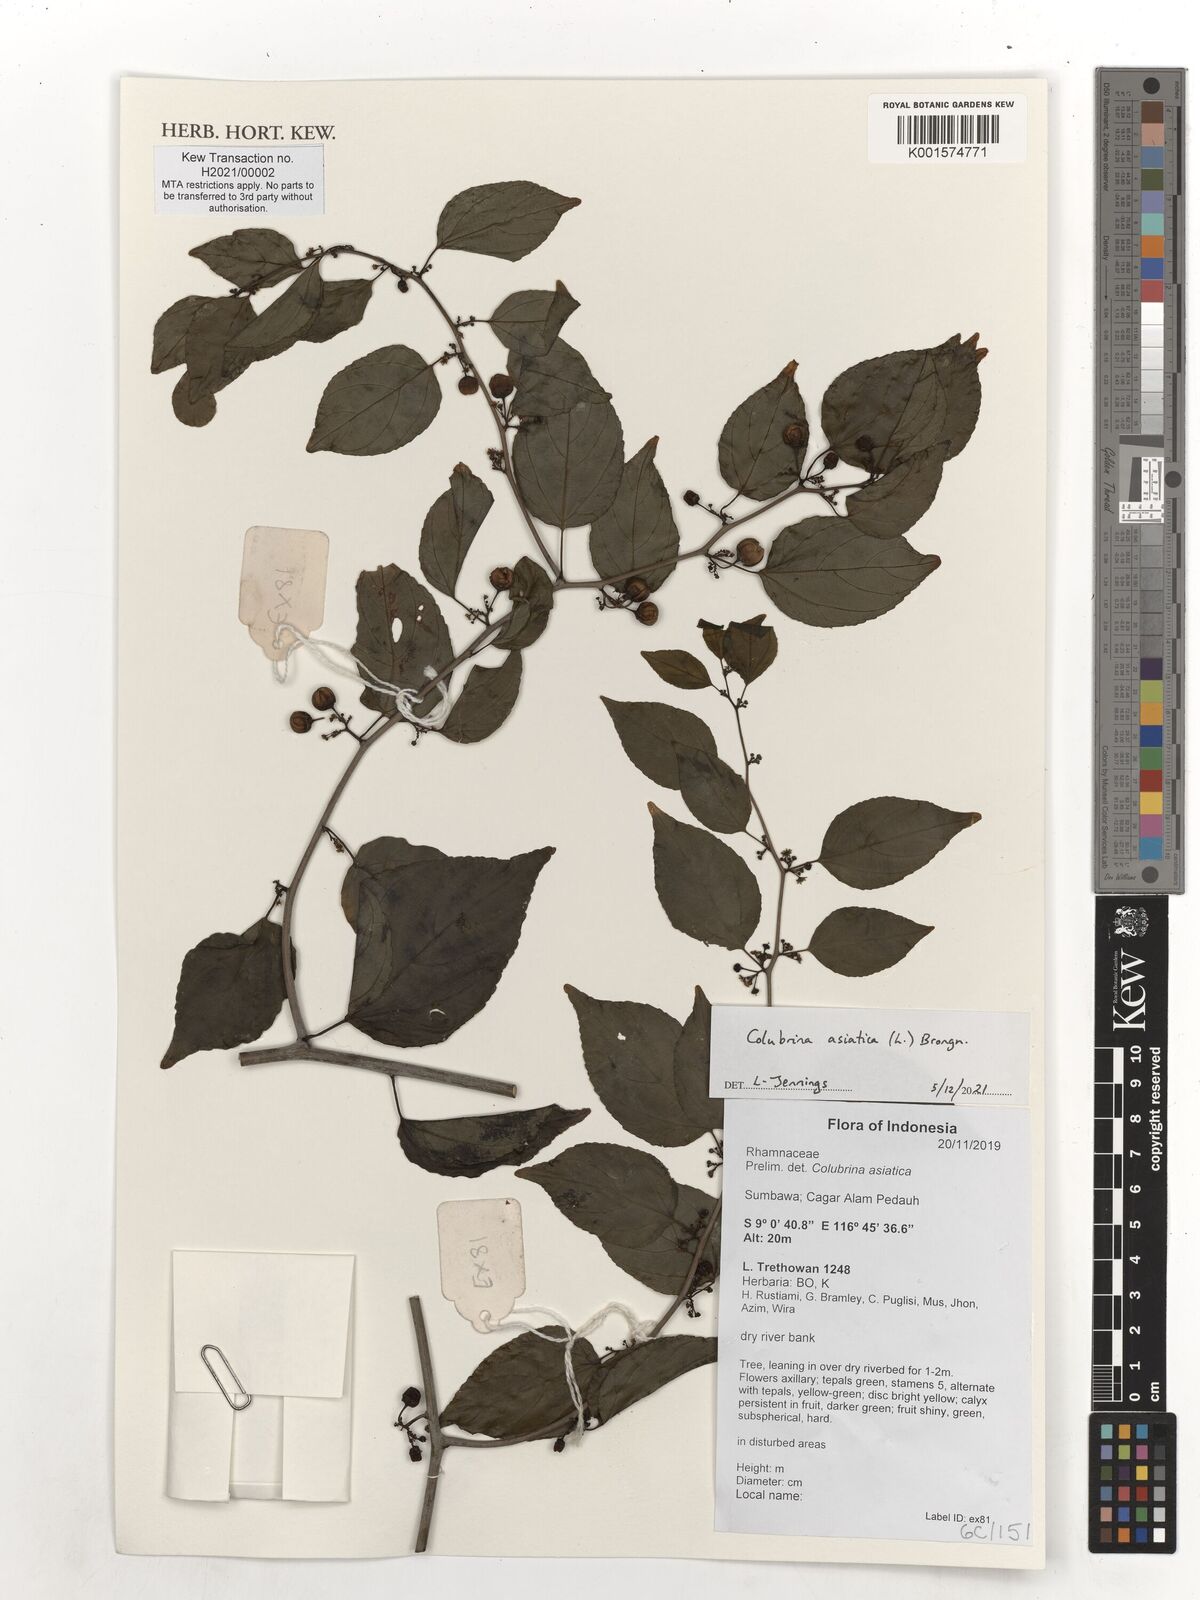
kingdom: Plantae
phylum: Tracheophyta
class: Magnoliopsida
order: Rosales
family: Rhamnaceae
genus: Colubrina
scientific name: Colubrina asiatica
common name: Asian nakedwood
